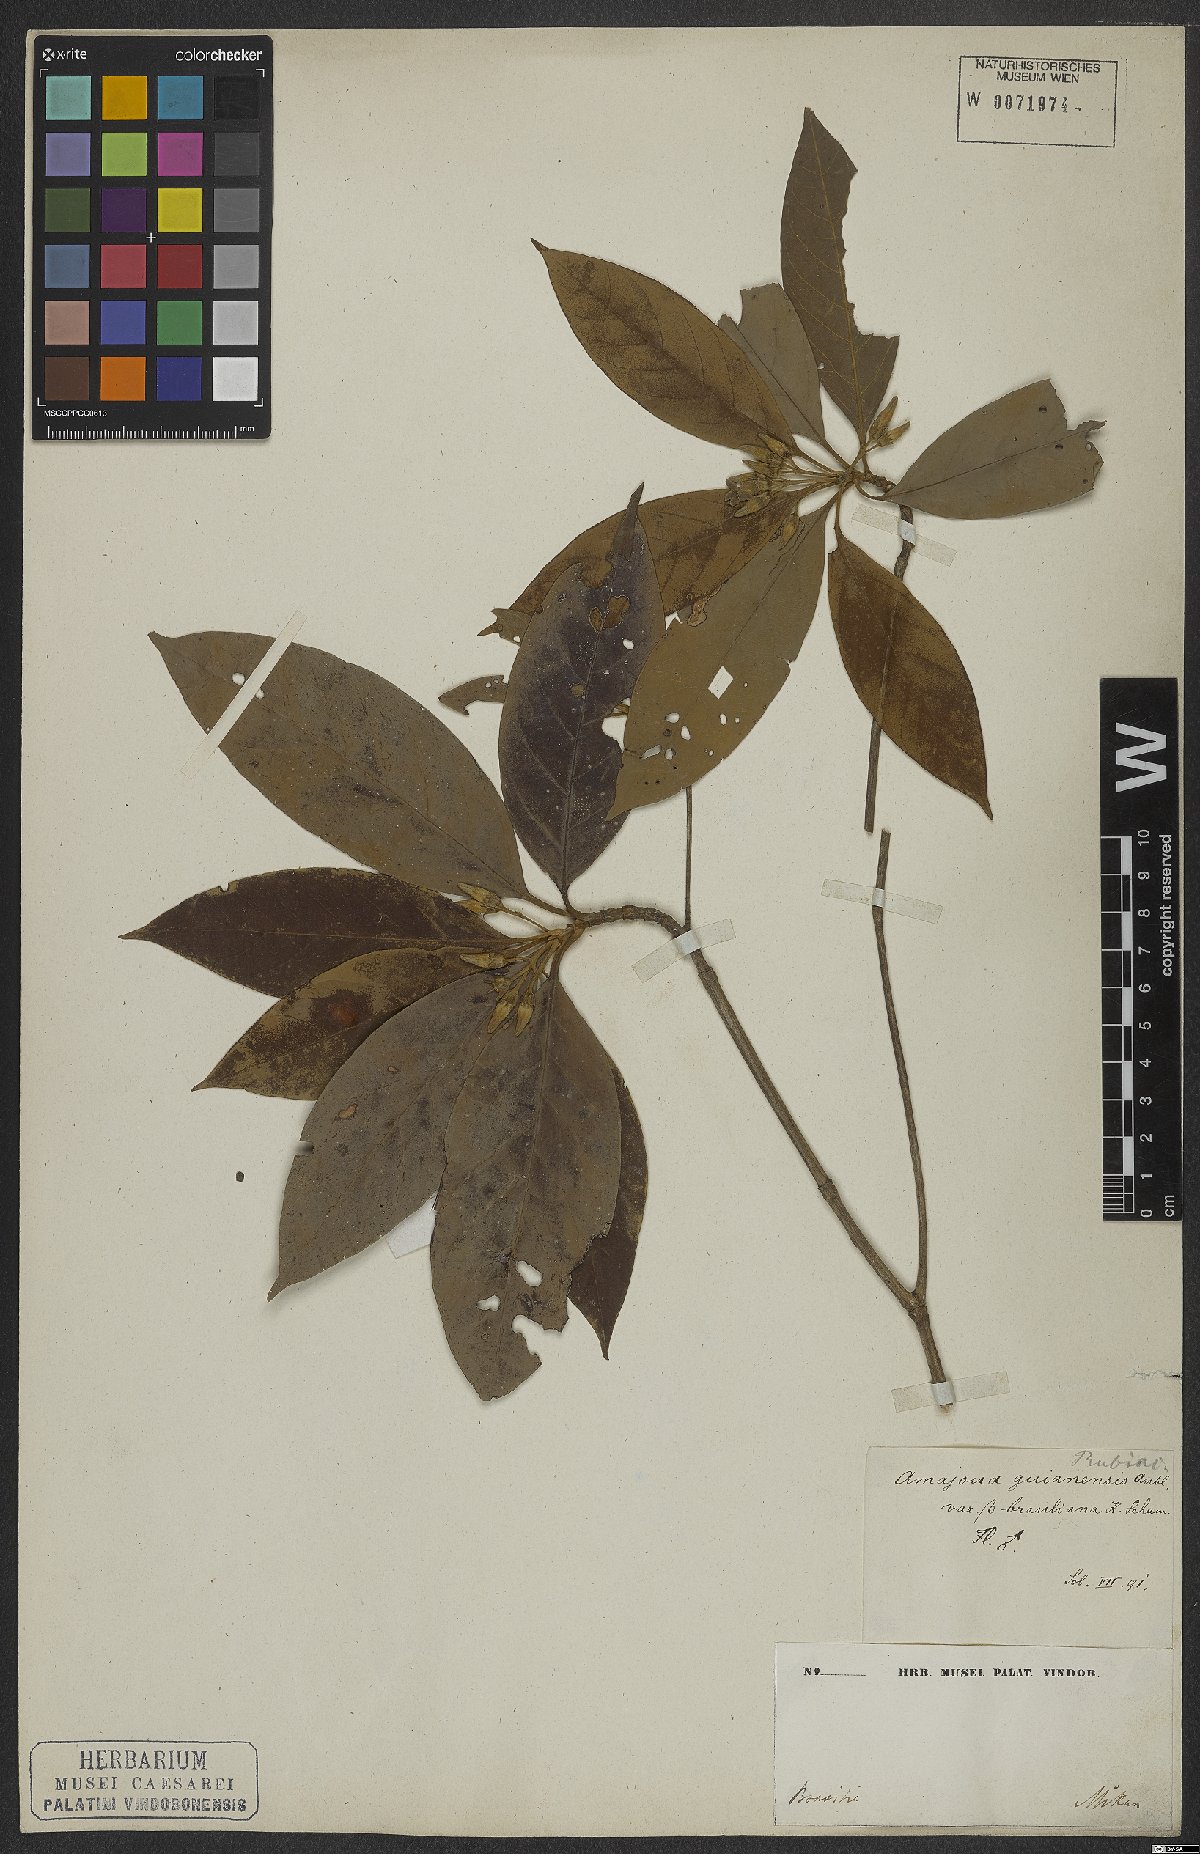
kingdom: Plantae
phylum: Tracheophyta
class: Magnoliopsida
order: Gentianales
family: Rubiaceae
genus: Amaioua
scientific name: Amaioua guianensis
